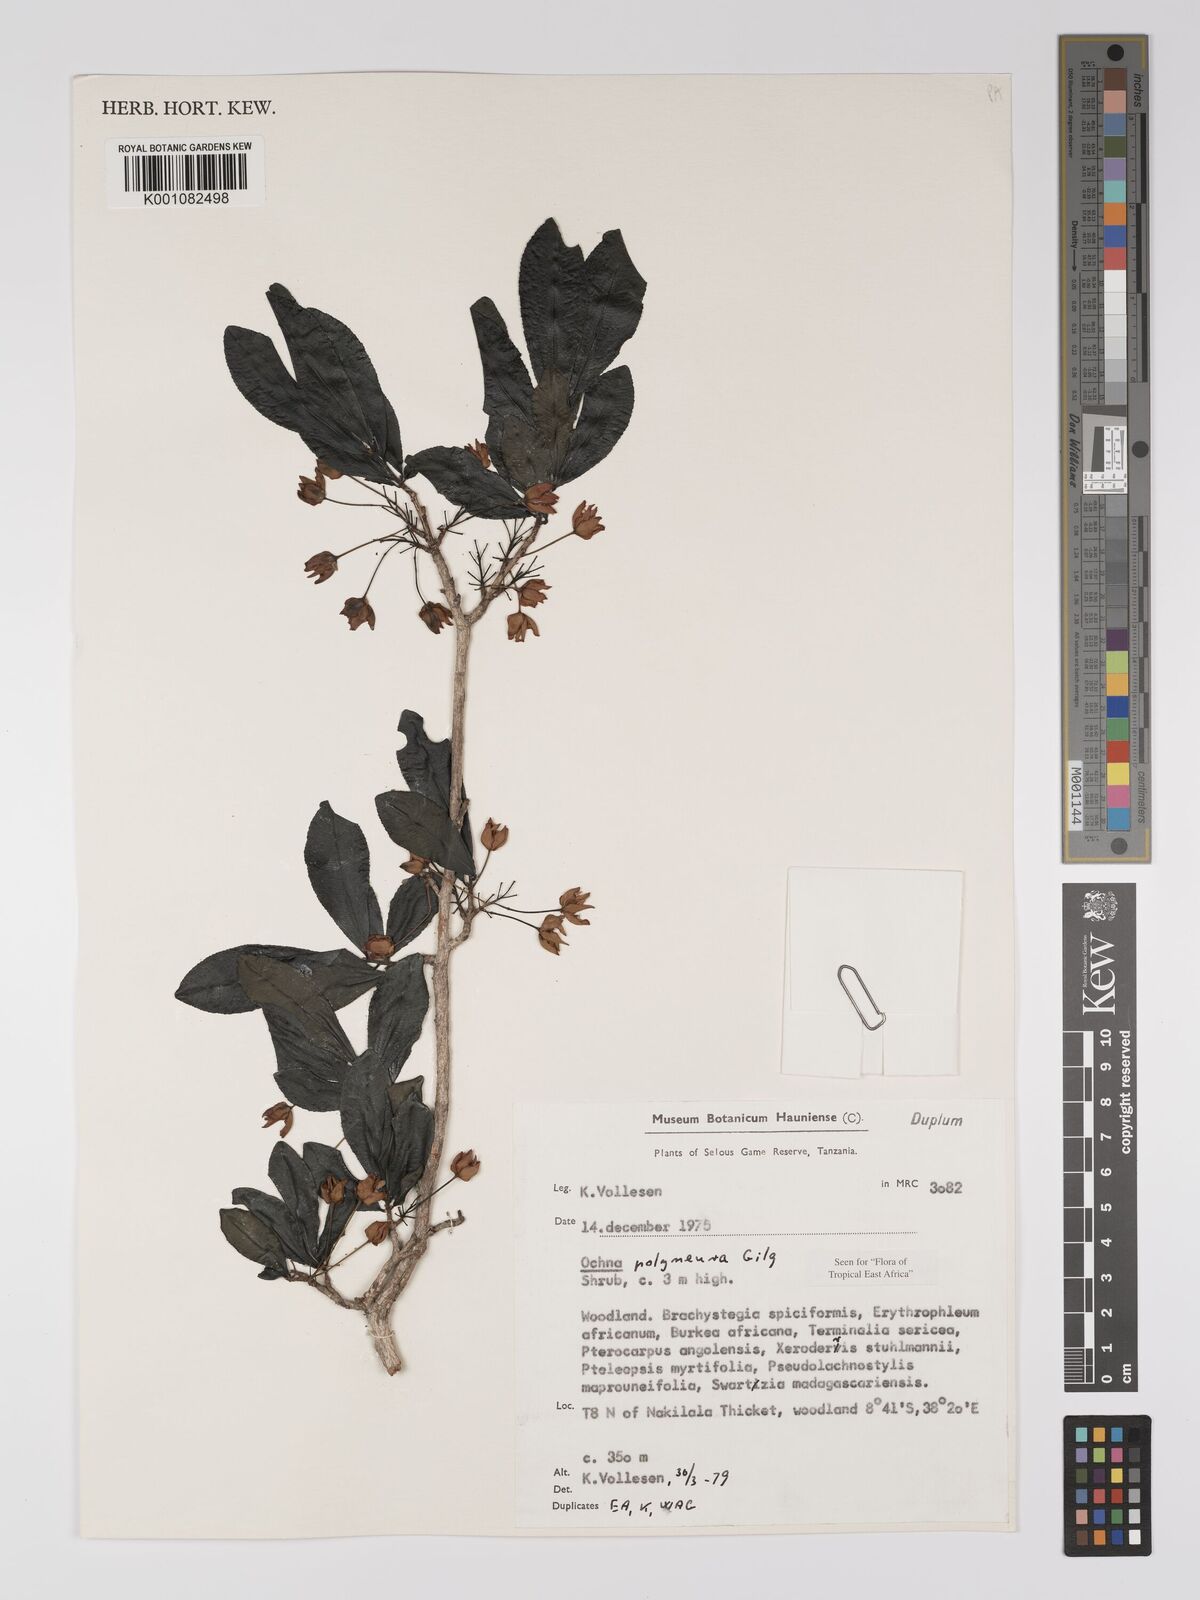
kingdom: Plantae
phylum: Tracheophyta
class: Magnoliopsida
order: Malpighiales
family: Ochnaceae
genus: Ochna
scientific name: Ochna
